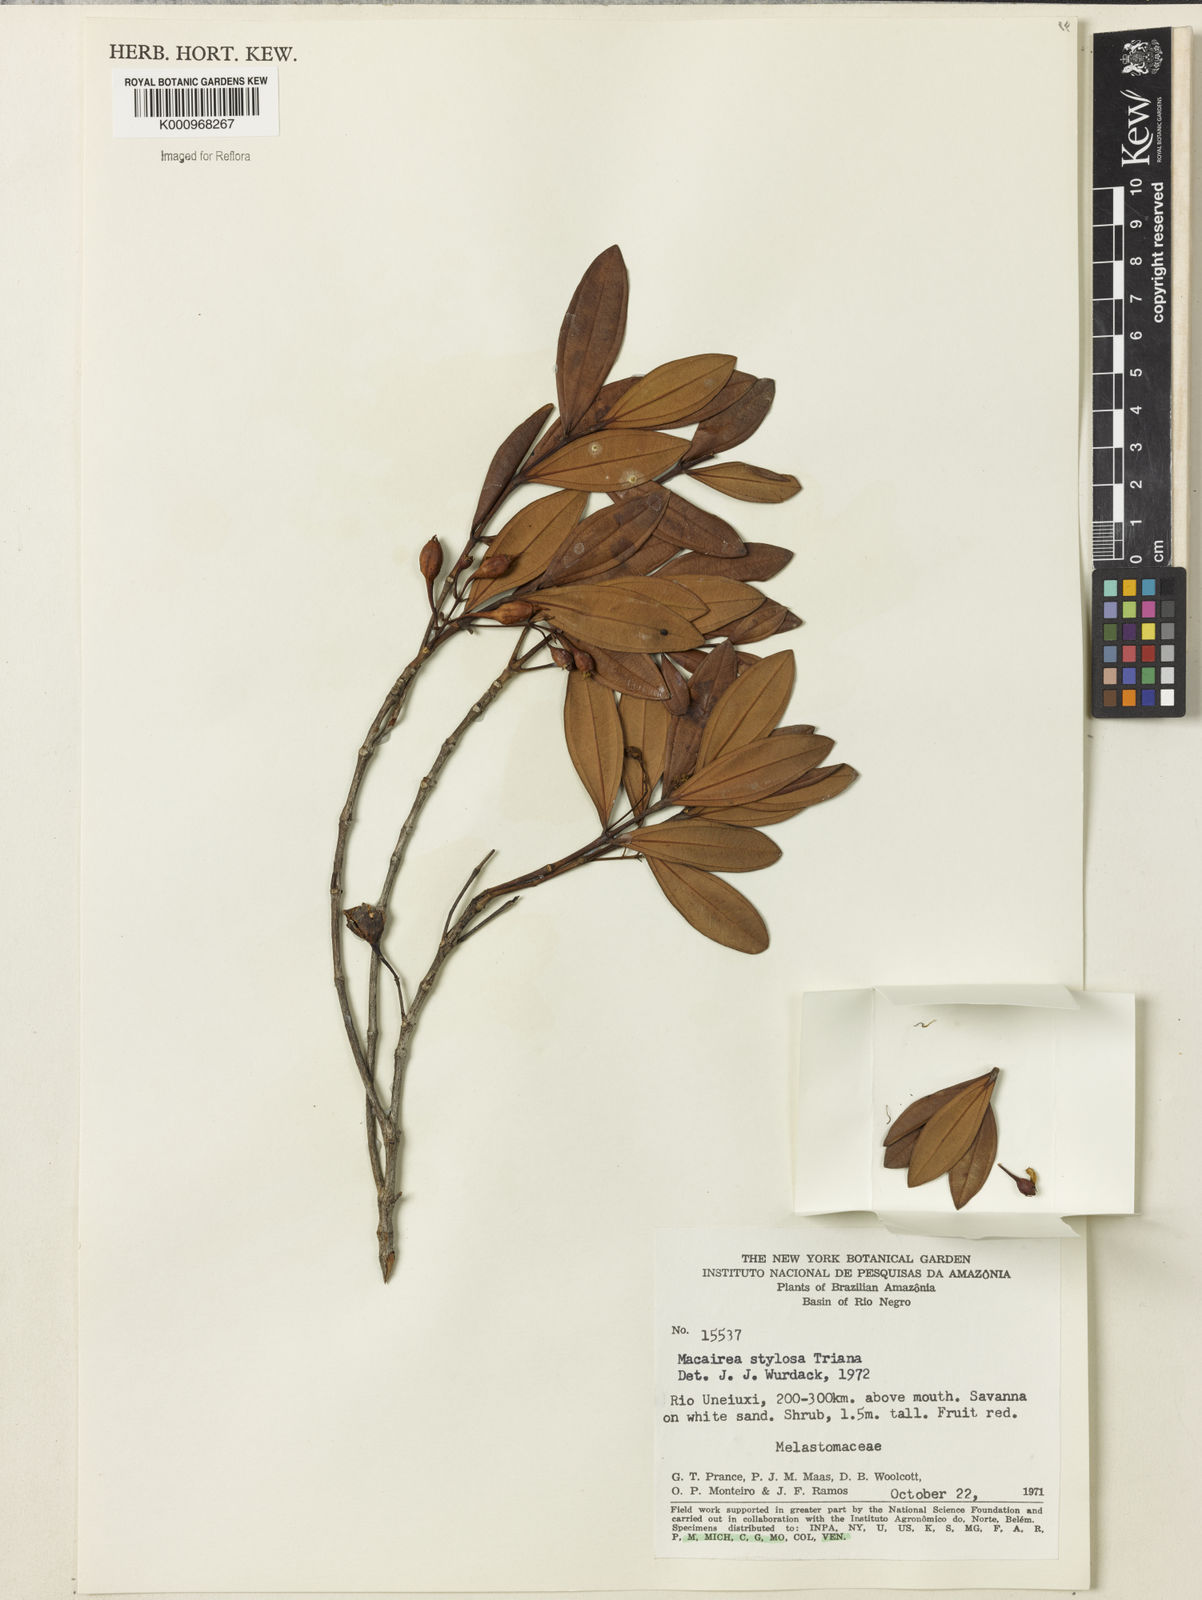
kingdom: Plantae
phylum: Tracheophyta
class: Magnoliopsida
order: Myrtales
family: Melastomataceae
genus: Macairea
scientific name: Macairea stylosa
